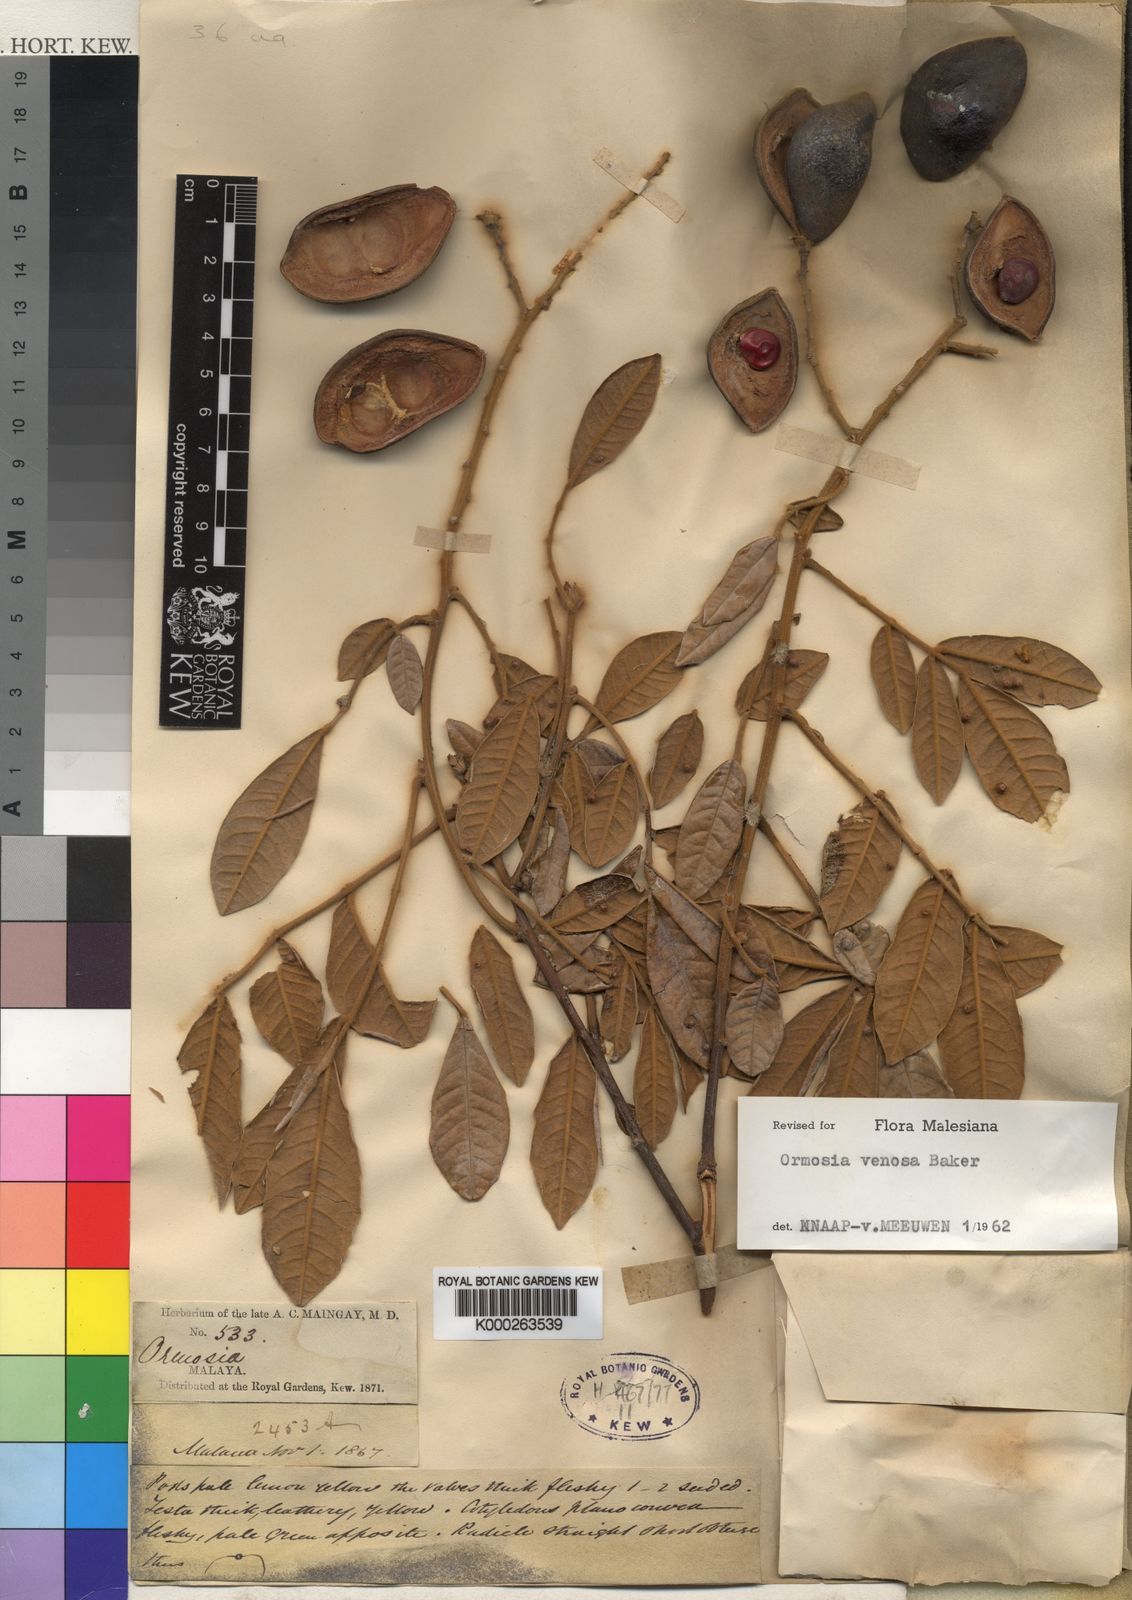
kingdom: Plantae
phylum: Tracheophyta
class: Magnoliopsida
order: Fabales
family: Fabaceae
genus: Ormosia
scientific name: Ormosia venosa
